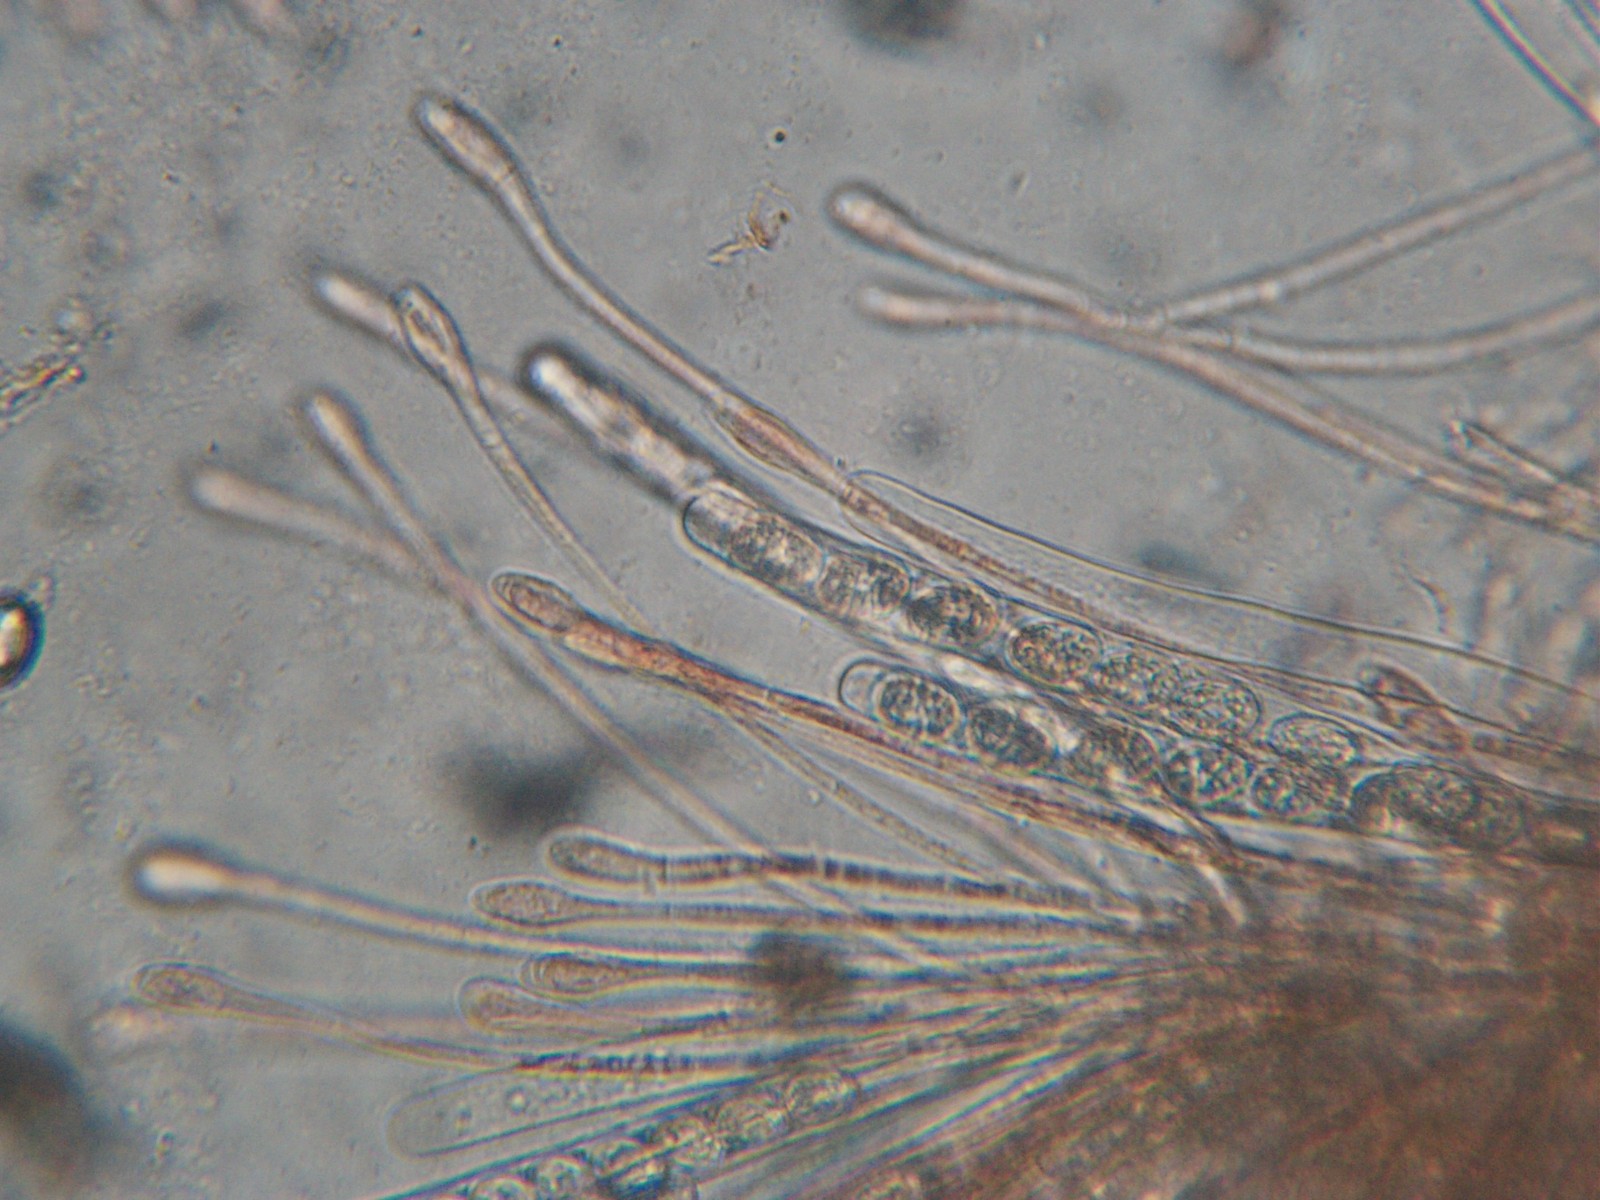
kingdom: Fungi
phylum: Ascomycota
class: Pezizomycetes
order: Pezizales
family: Pyronemataceae
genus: Scutellinia
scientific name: Scutellinia scutellata
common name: frynset skjoldbæger
